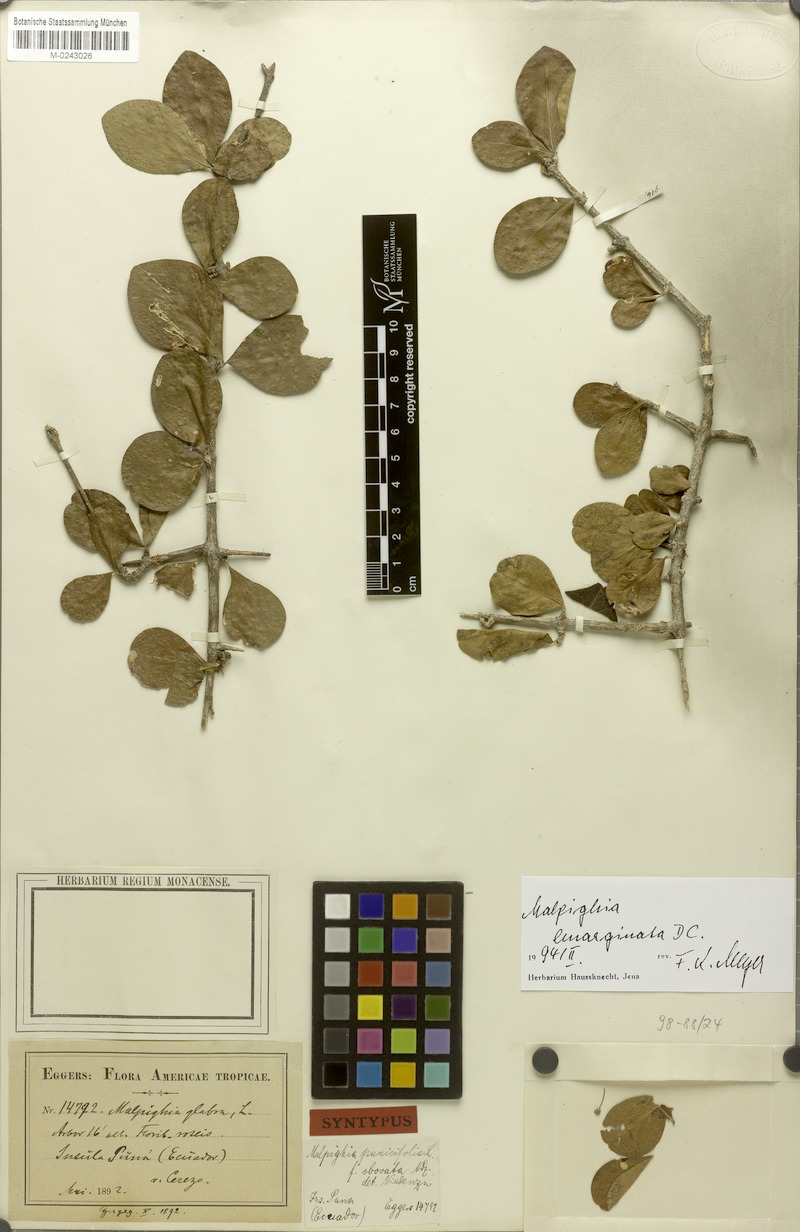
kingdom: Plantae
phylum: Tracheophyta
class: Magnoliopsida
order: Malpighiales
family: Malpighiaceae
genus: Malpighia
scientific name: Malpighia emarginata
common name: Barbados cherry
